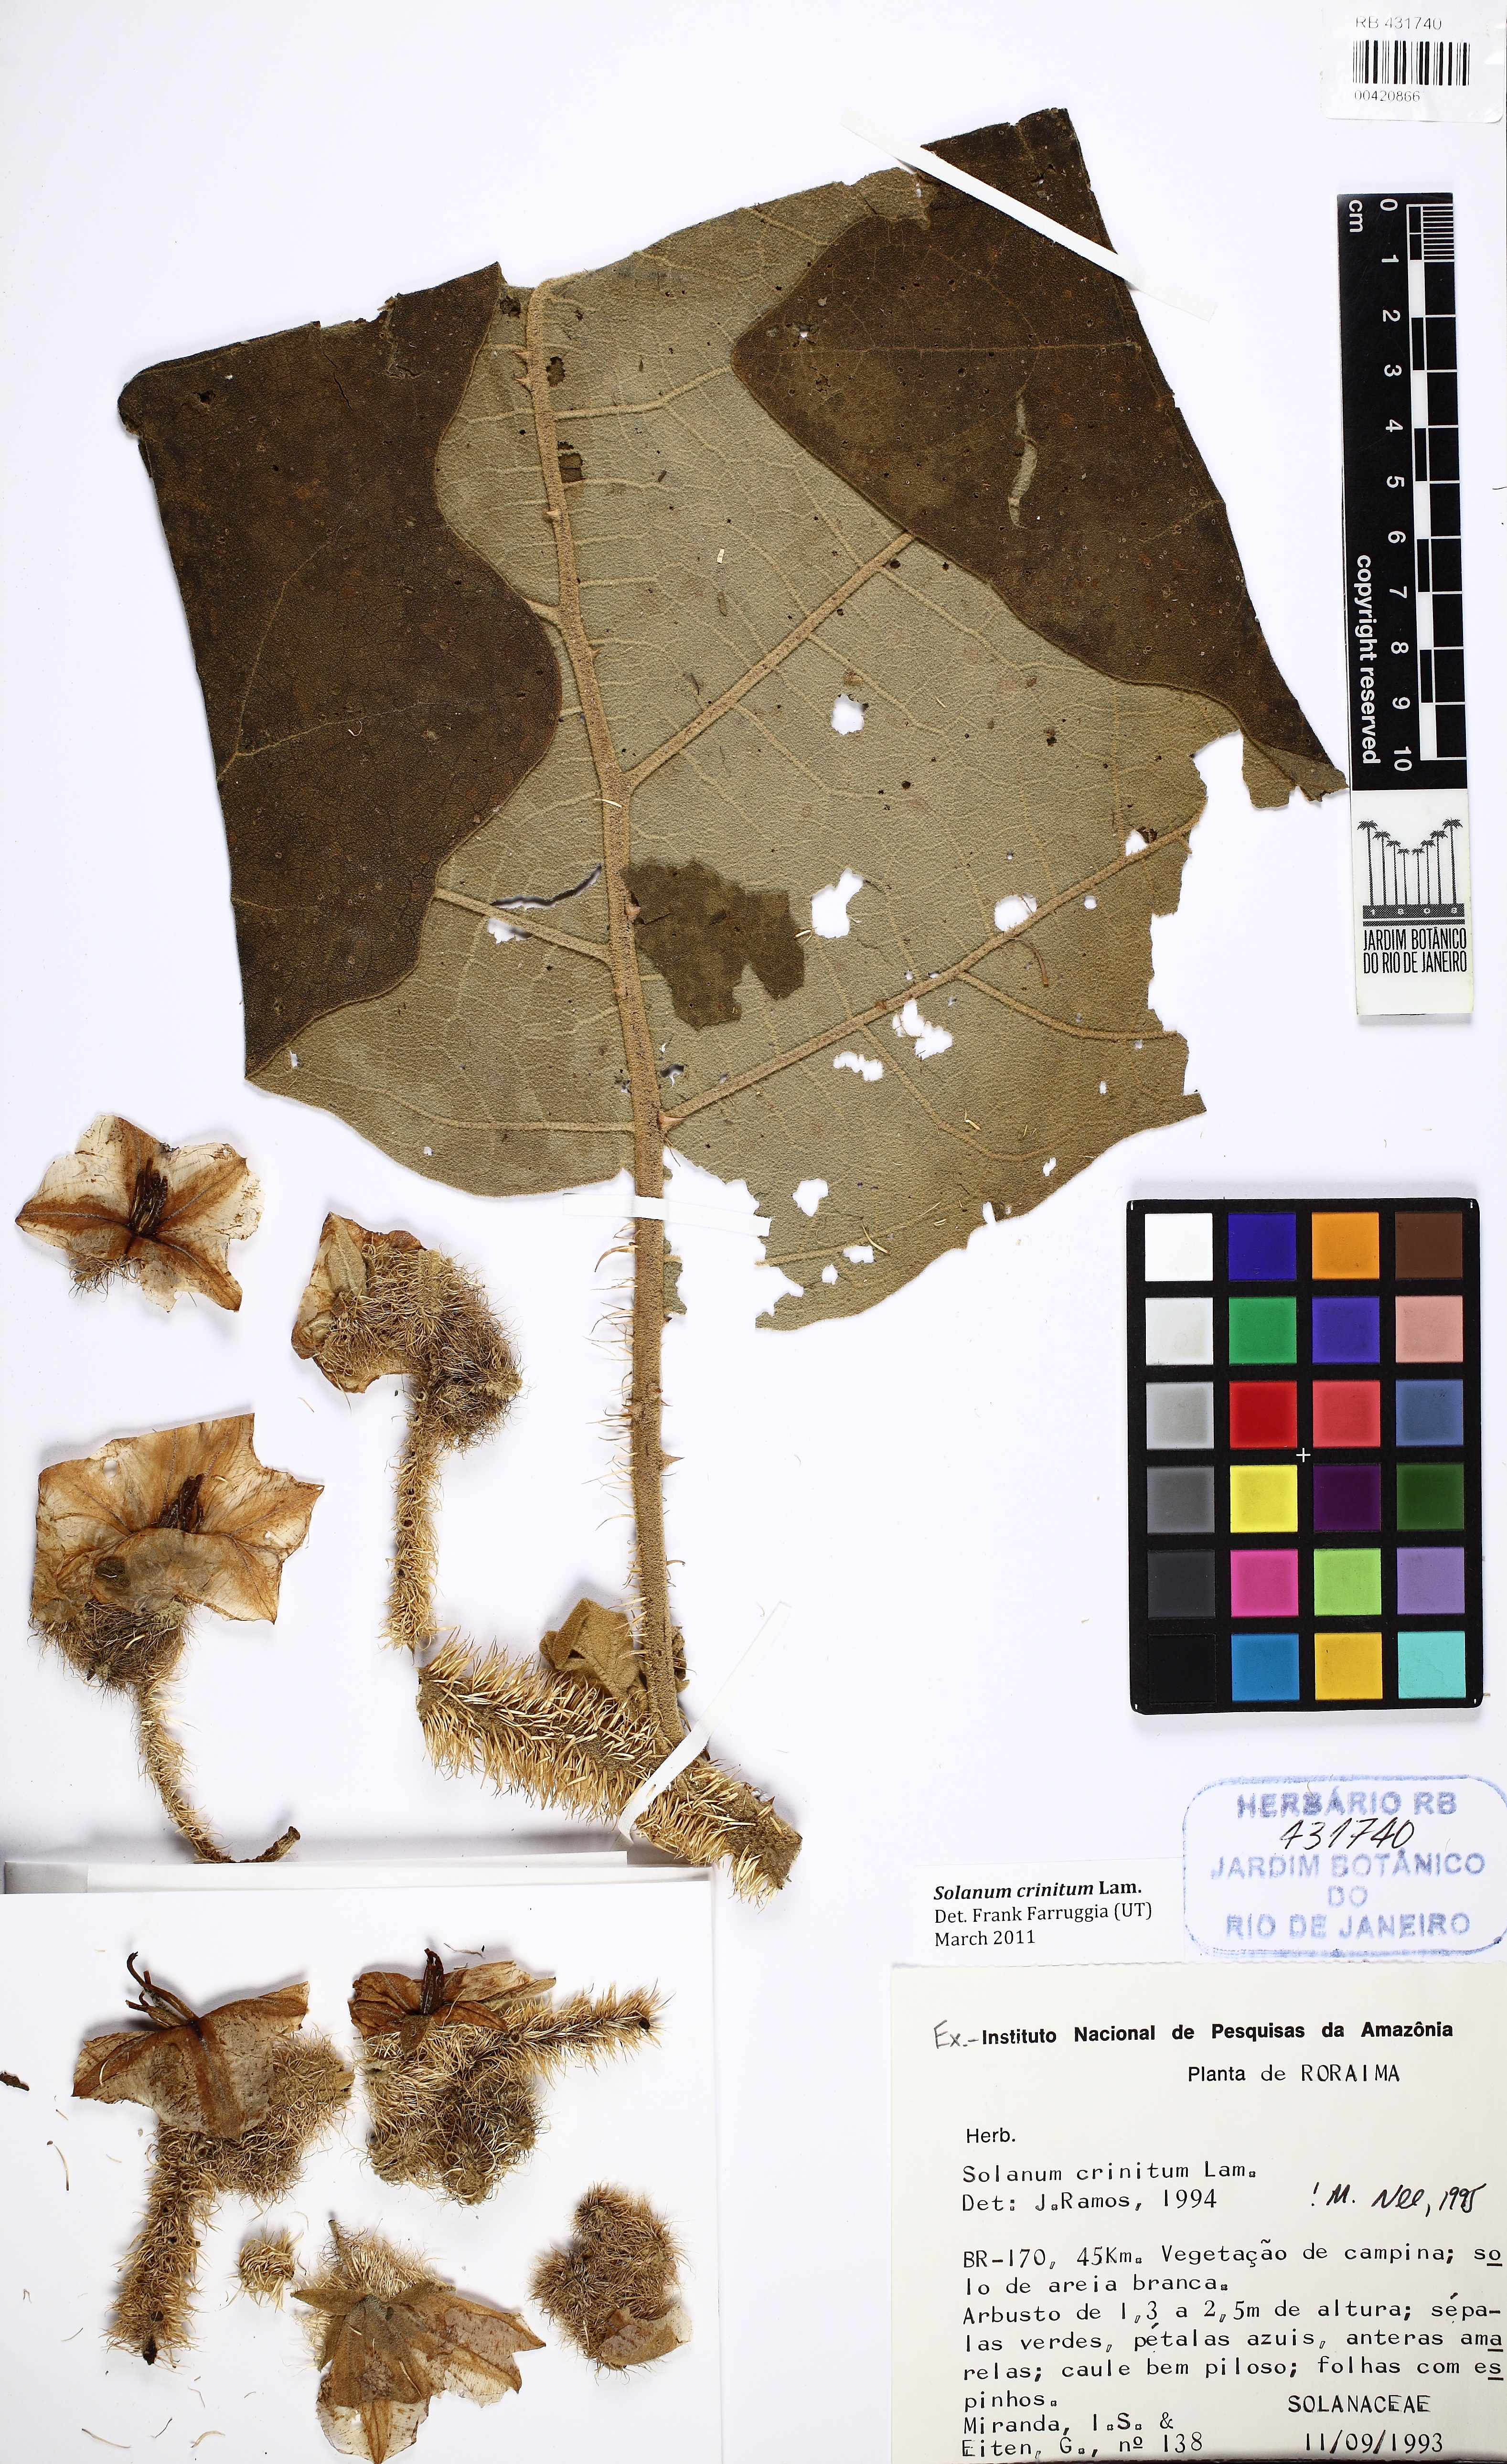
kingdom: Plantae
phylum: Tracheophyta
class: Magnoliopsida
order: Solanales
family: Solanaceae
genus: Solanum
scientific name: Solanum crinitum
